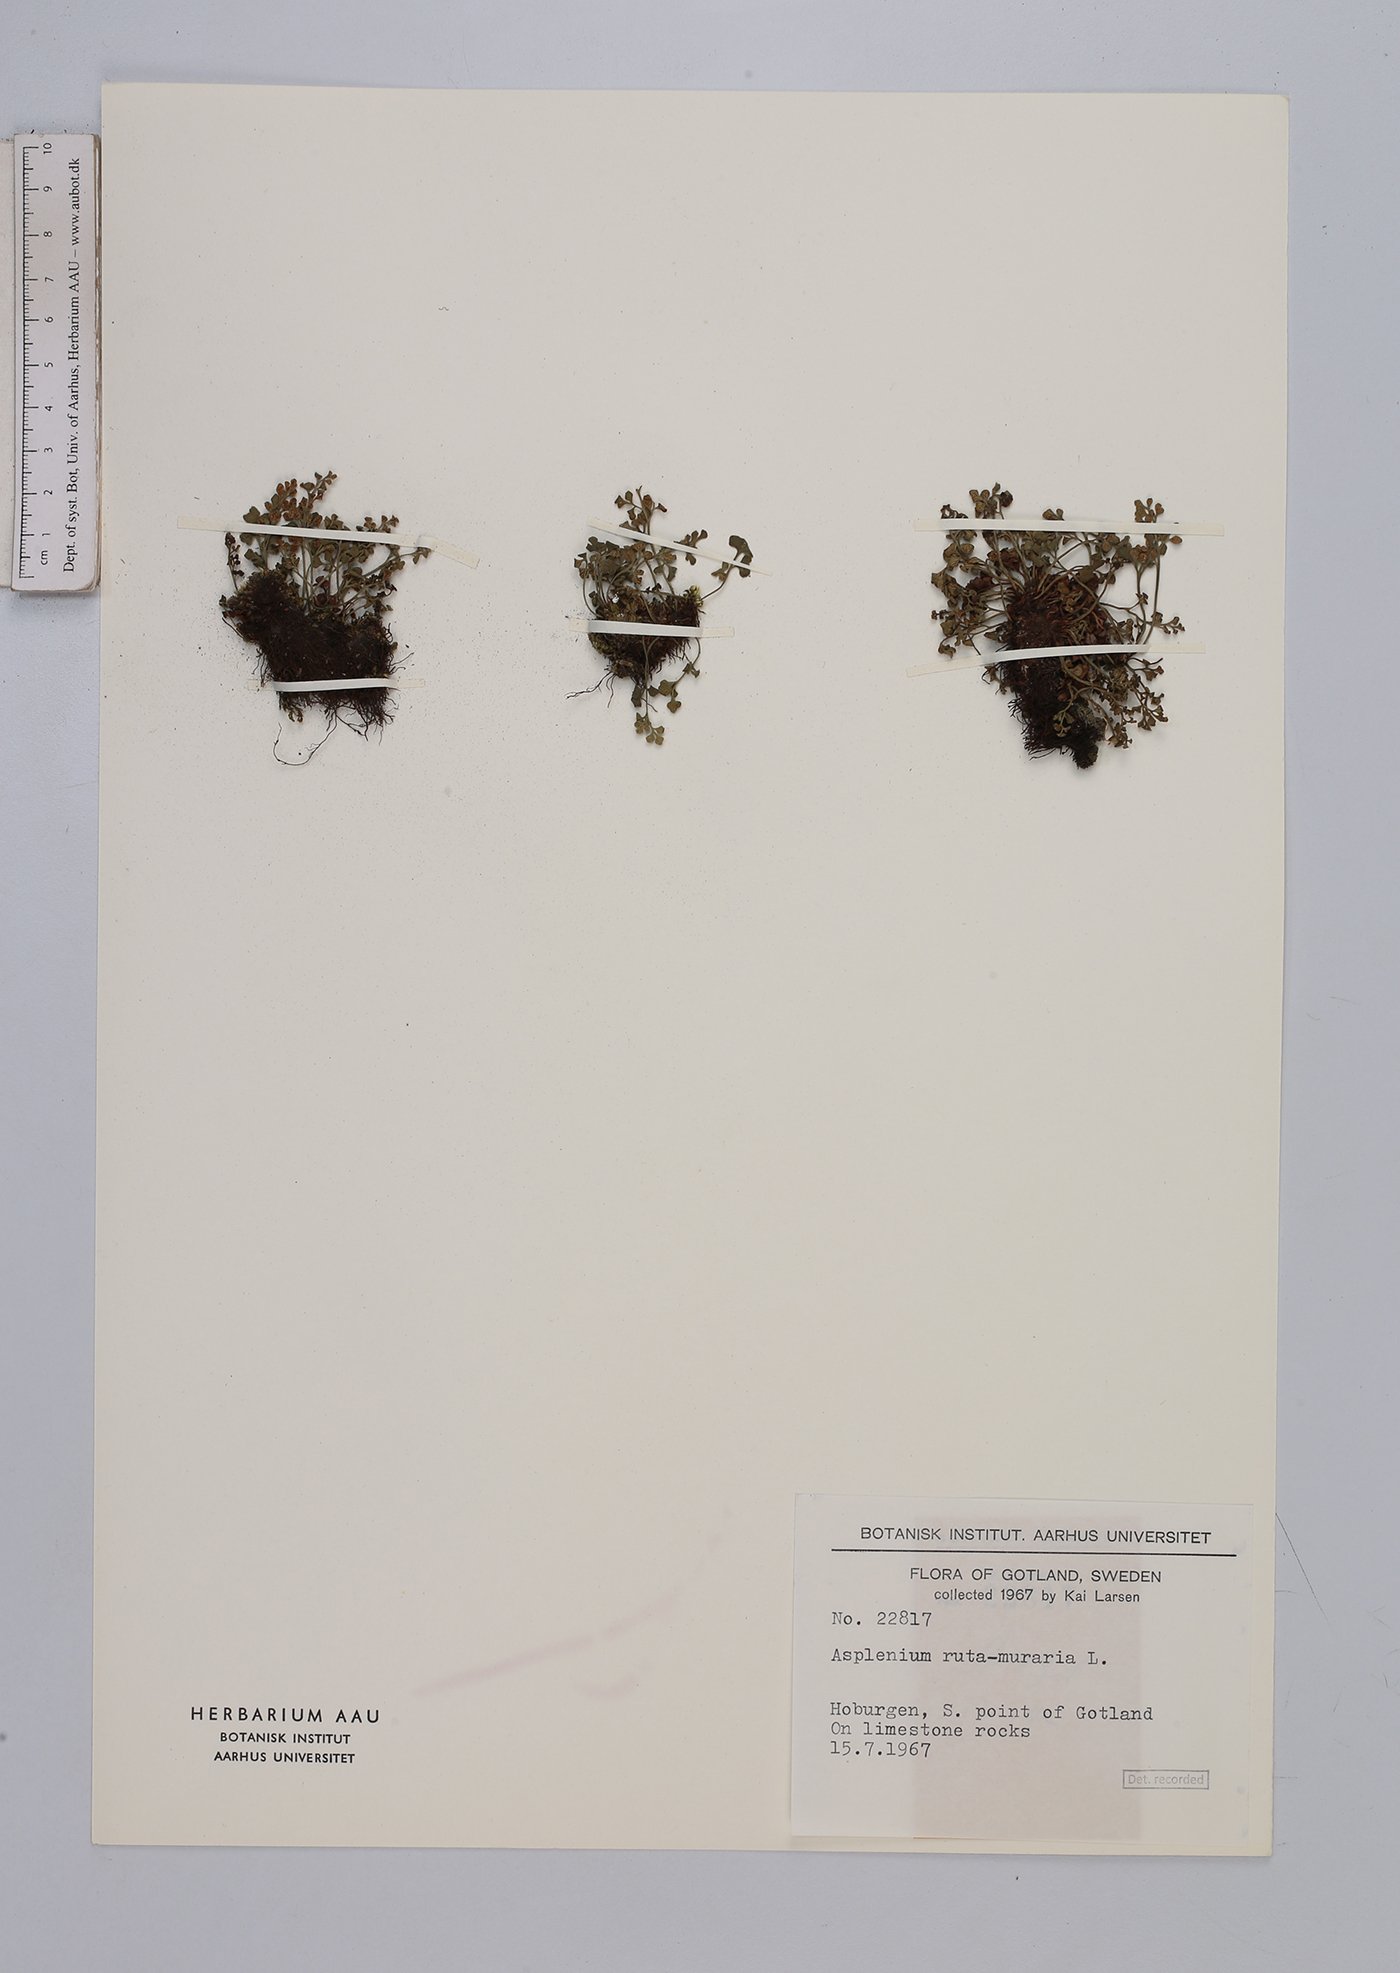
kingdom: Plantae
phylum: Tracheophyta
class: Polypodiopsida
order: Polypodiales
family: Aspleniaceae
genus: Asplenium
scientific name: Asplenium ruta-muraria
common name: Wall-rue
